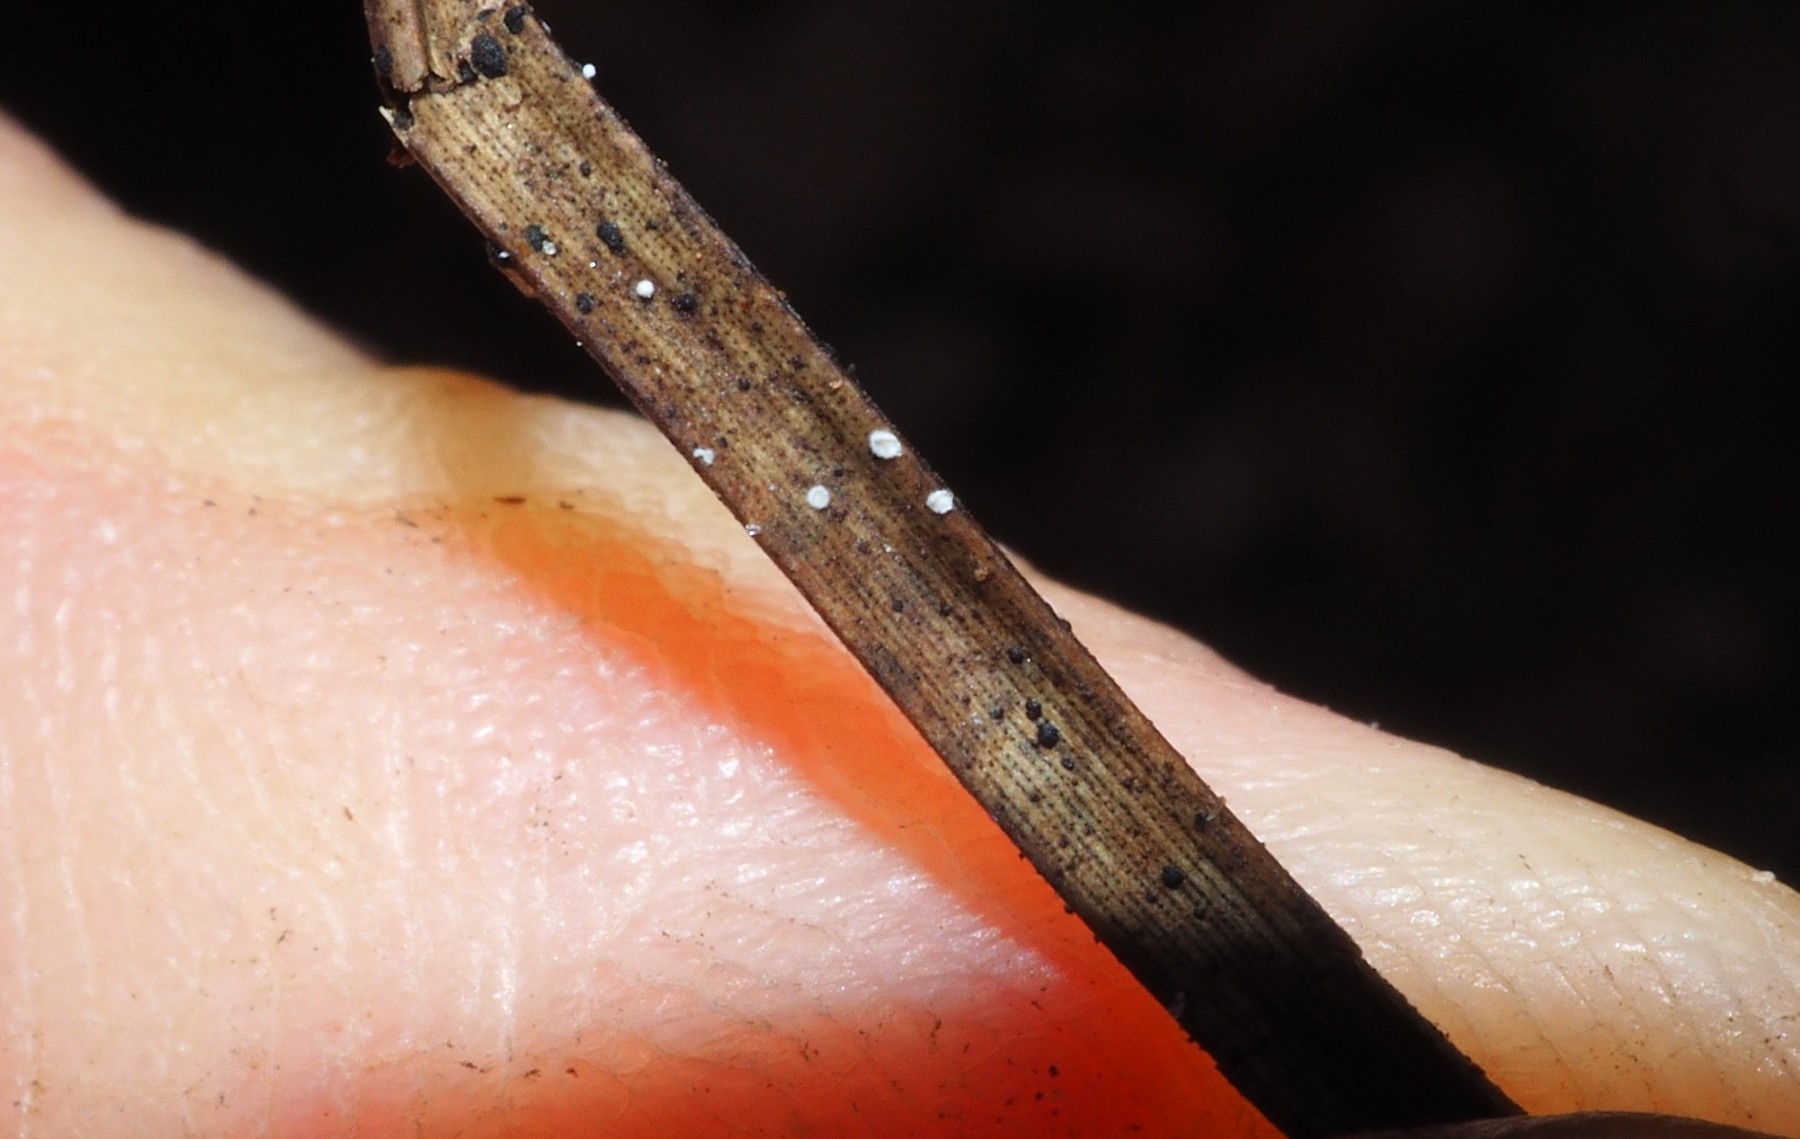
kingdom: Fungi
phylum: Basidiomycota
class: Agaricomycetes
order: Agaricales
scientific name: Agaricales
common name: champignonordenen
